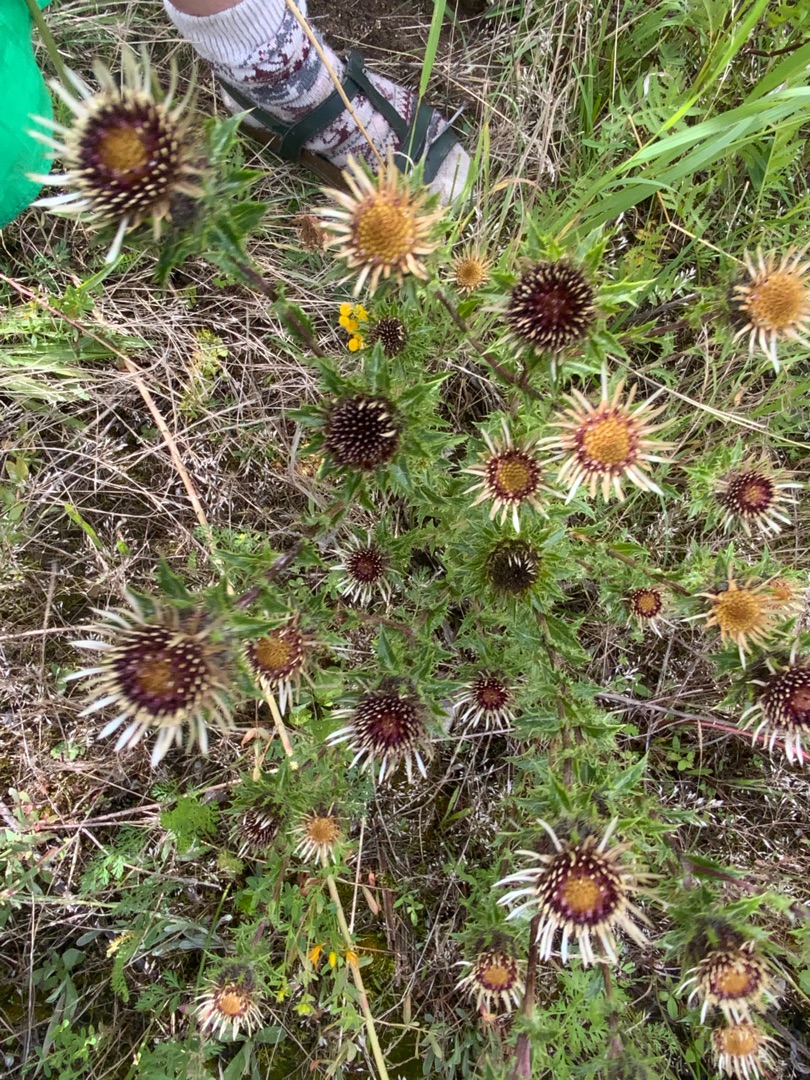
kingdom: Plantae
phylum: Tracheophyta
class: Magnoliopsida
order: Asterales
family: Asteraceae
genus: Carlina
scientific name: Carlina vulgaris
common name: Bakketidsel
